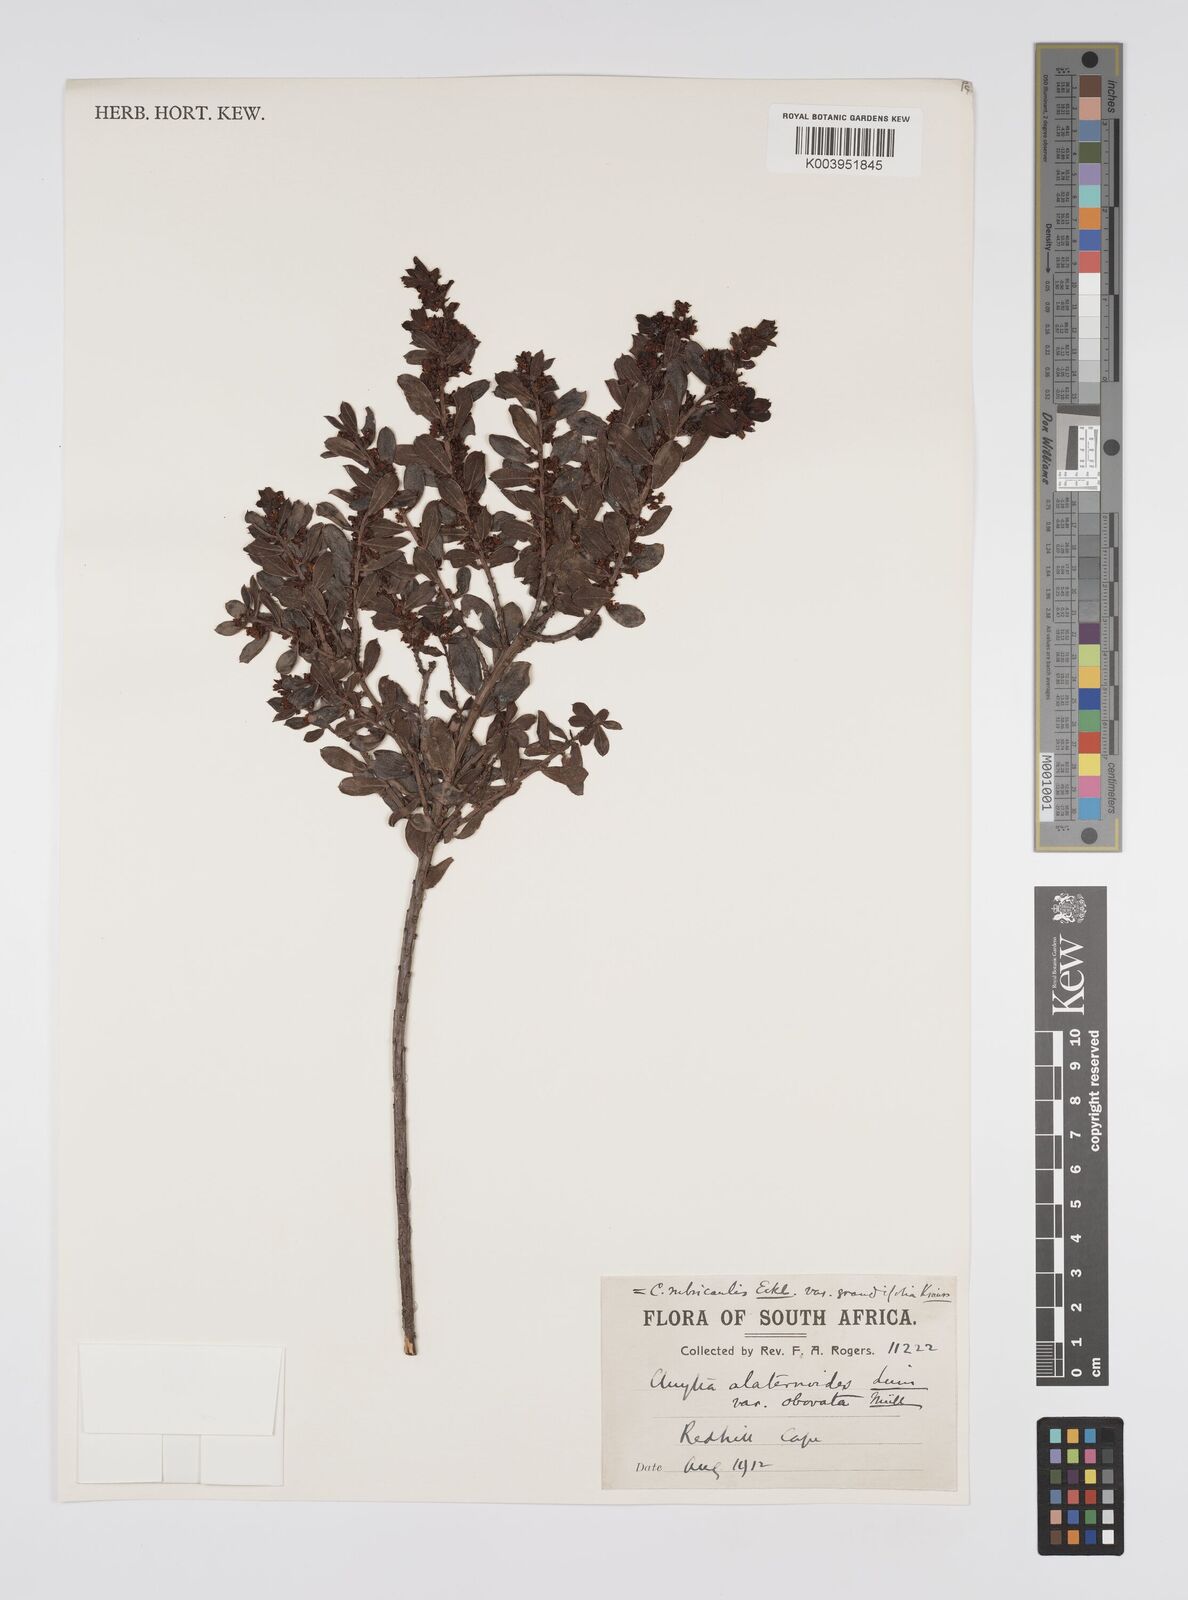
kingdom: Plantae
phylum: Tracheophyta
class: Magnoliopsida
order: Malpighiales
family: Peraceae
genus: Clutia
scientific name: Clutia rubricaulis
